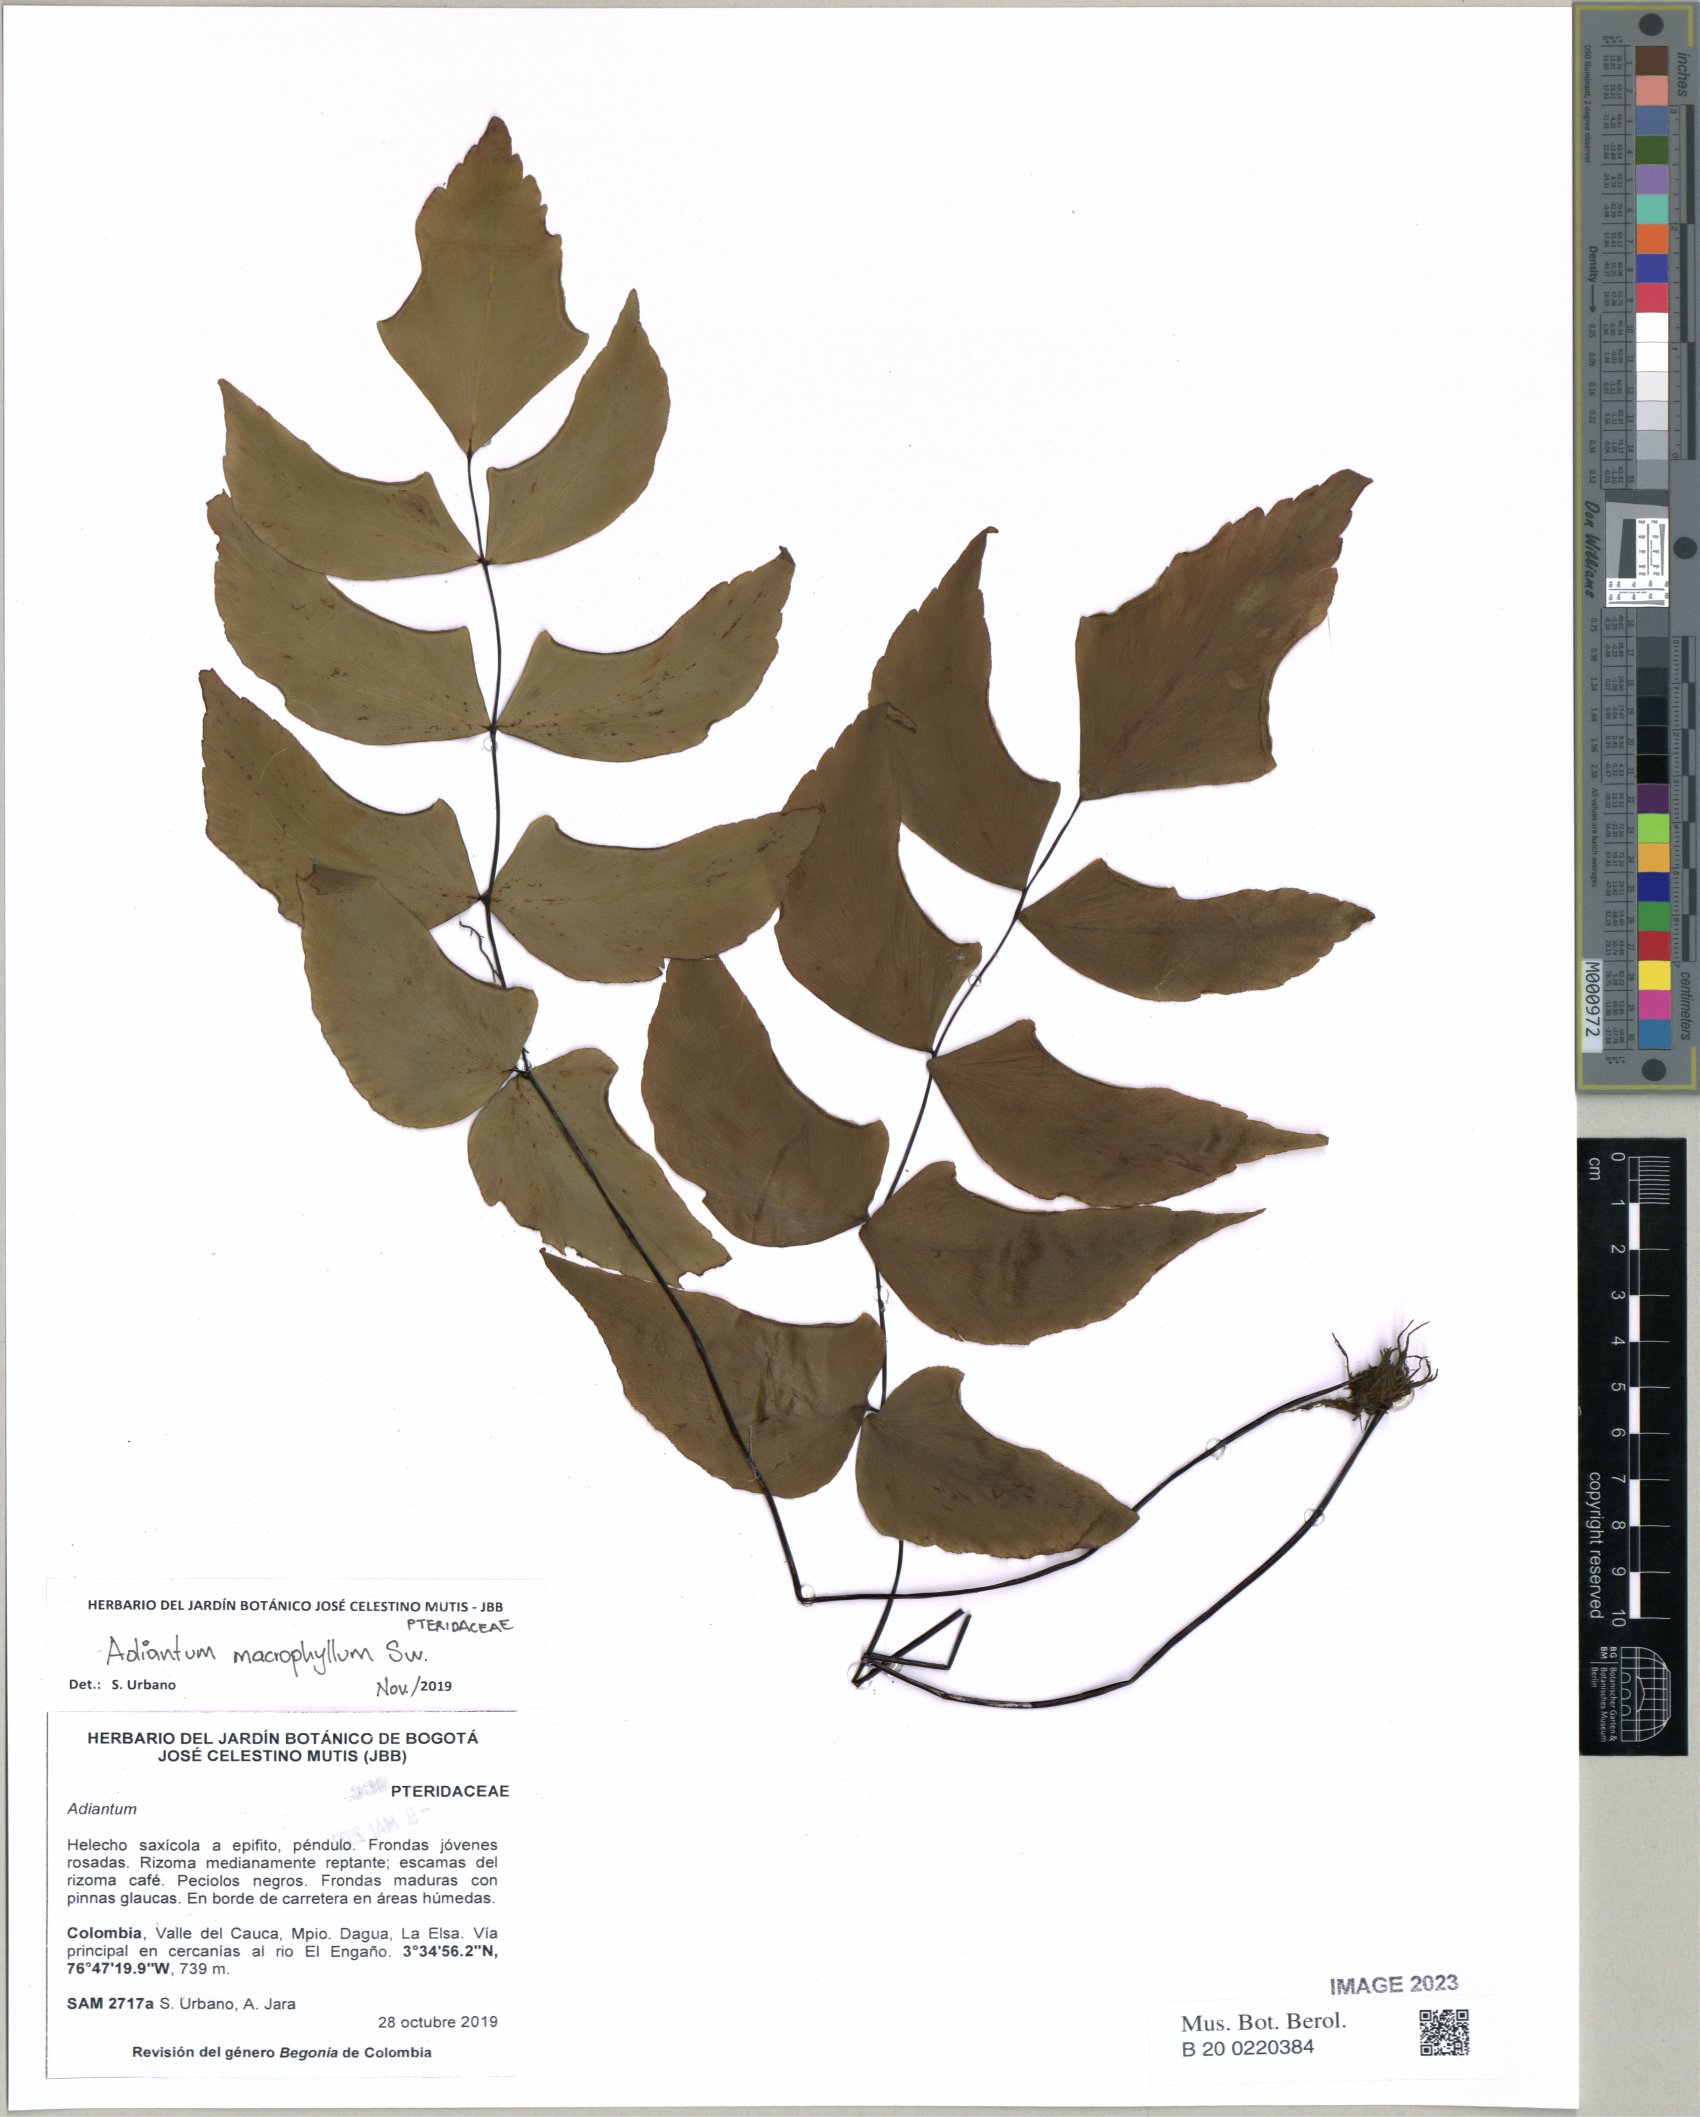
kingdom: Plantae
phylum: Tracheophyta
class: Polypodiopsida
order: Polypodiales
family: Pteridaceae
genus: Adiantum
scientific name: Adiantum macrophyllum
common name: Largeleaf maidenhair
